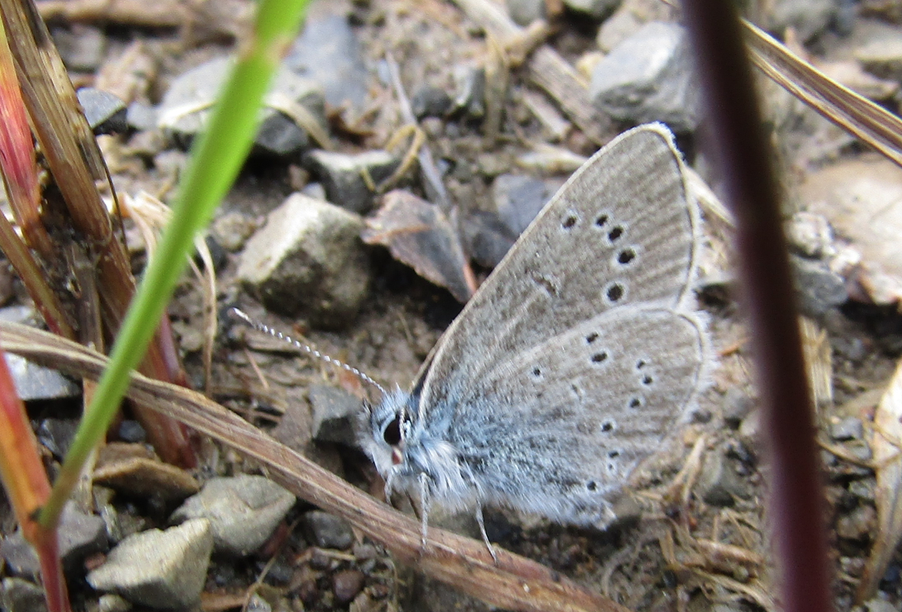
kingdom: Animalia
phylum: Arthropoda
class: Insecta
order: Lepidoptera
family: Lycaenidae
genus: Glaucopsyche
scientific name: Glaucopsyche lygdamus
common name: Silvery Blue
